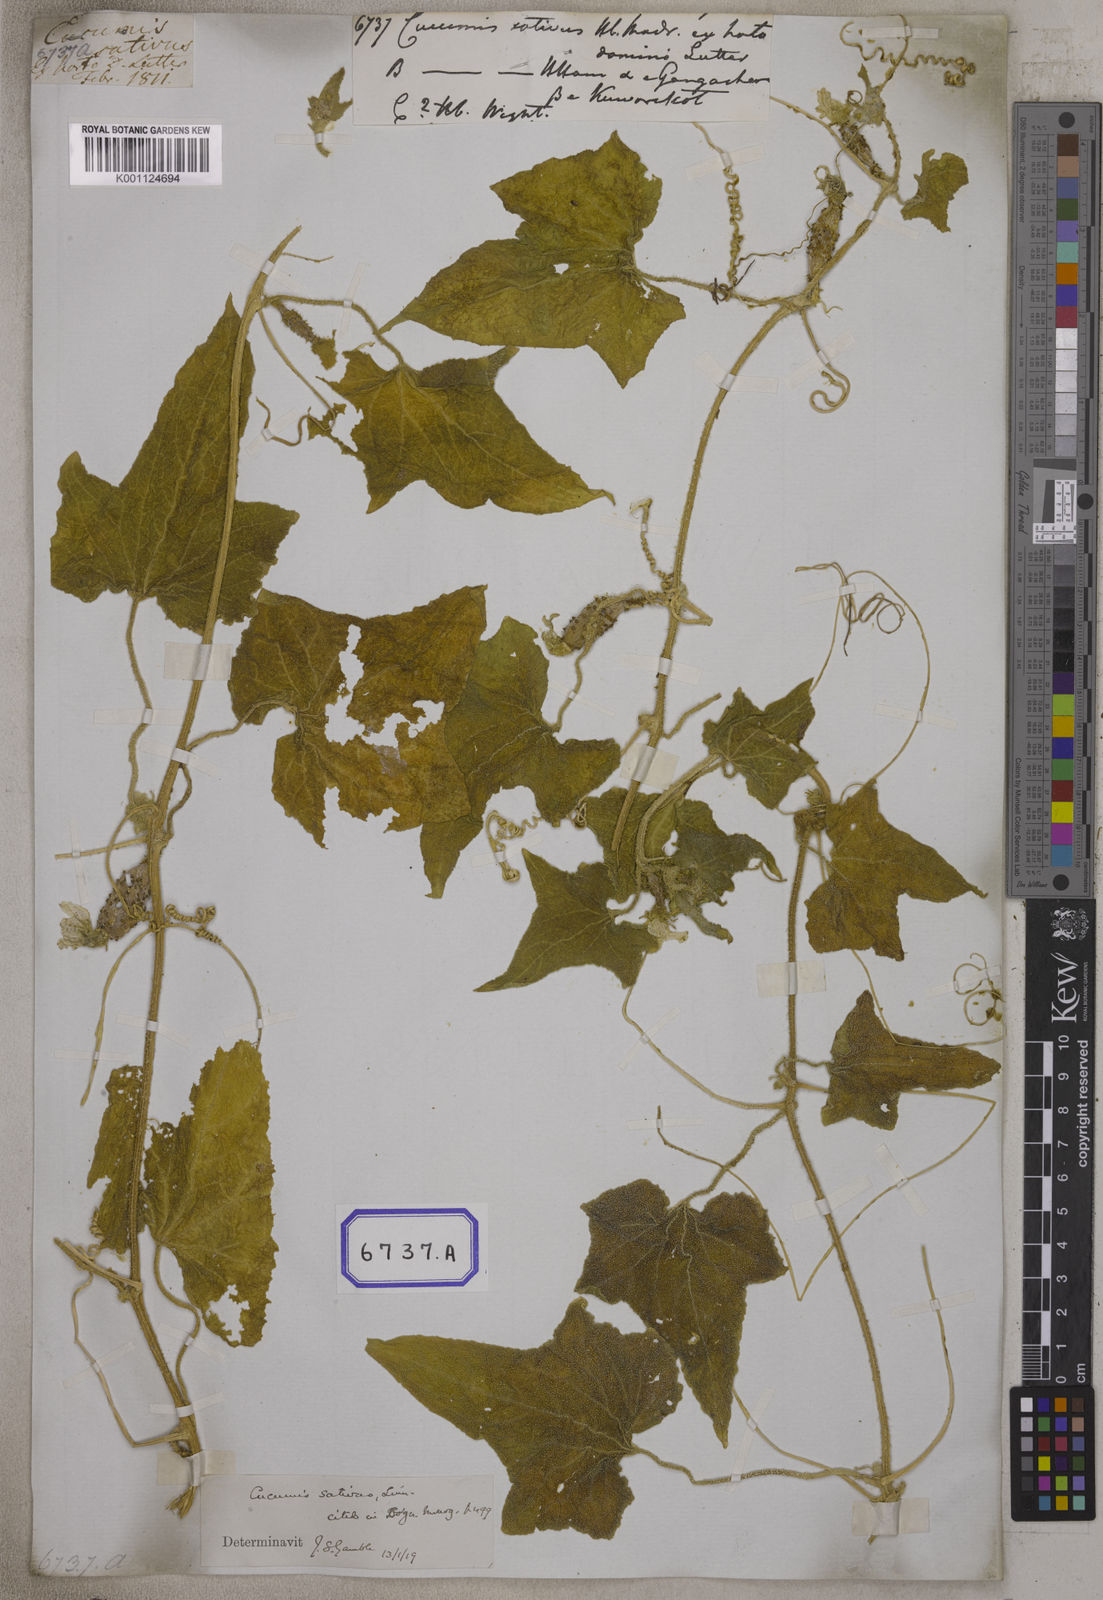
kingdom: Plantae
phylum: Tracheophyta
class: Magnoliopsida
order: Cucurbitales
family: Cucurbitaceae
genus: Cucumis
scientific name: Cucumis sativus
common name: Cucumber
